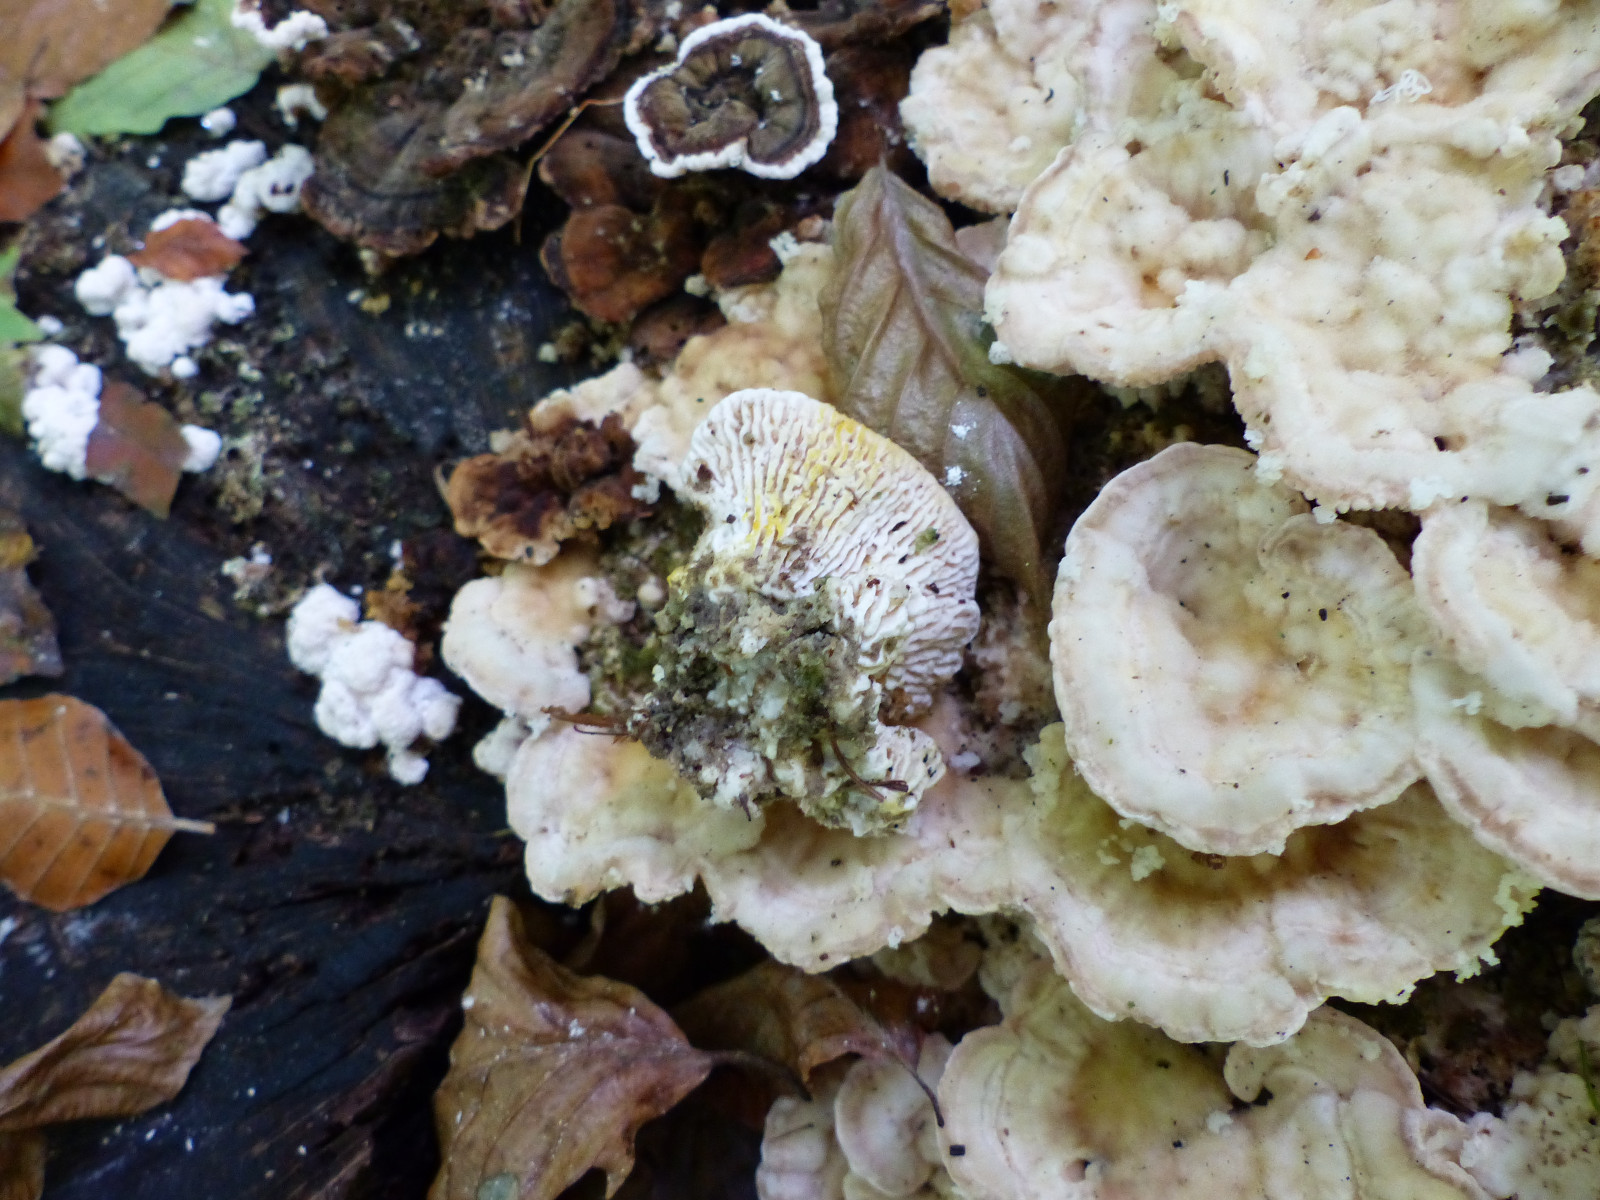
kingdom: Fungi
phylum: Basidiomycota
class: Agaricomycetes
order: Polyporales
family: Polyporaceae
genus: Lenzites
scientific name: Lenzites betulinus
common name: birke-læderporesvamp
